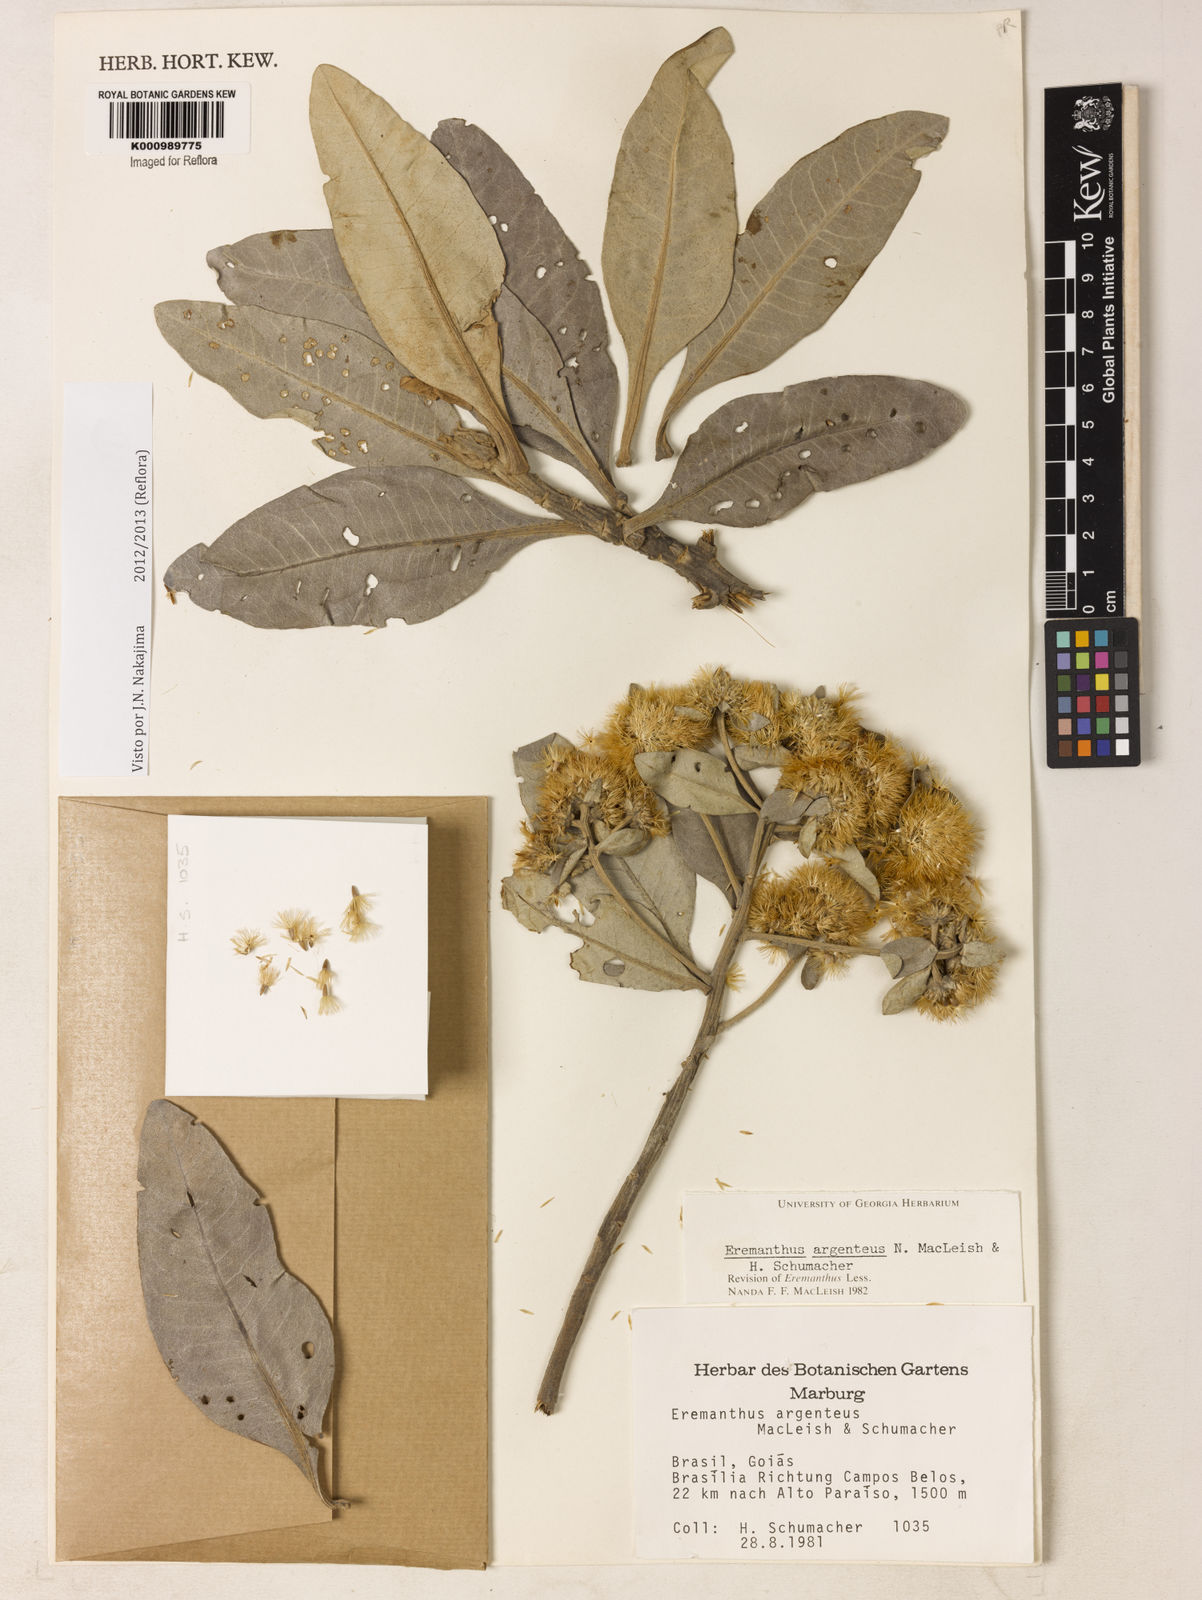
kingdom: Plantae
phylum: Tracheophyta
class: Magnoliopsida
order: Asterales
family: Asteraceae
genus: Eremanthus
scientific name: Eremanthus argenteus
